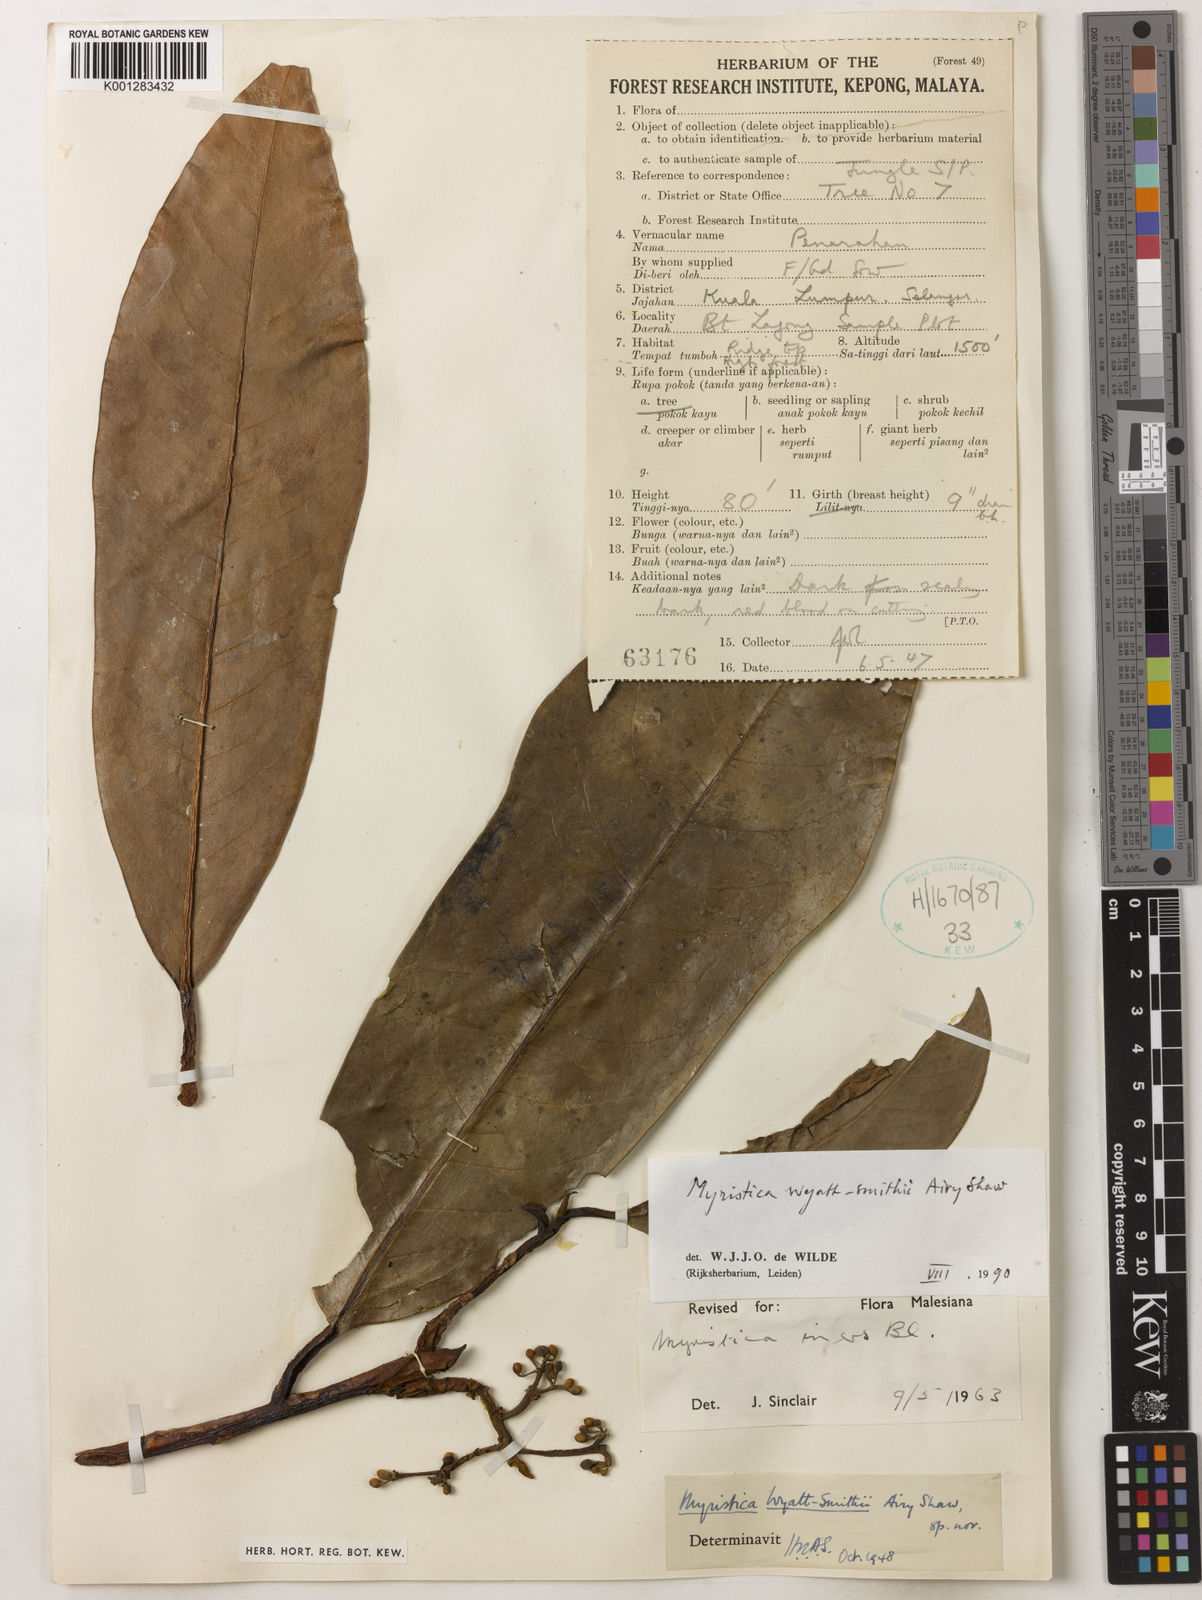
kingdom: Plantae
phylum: Tracheophyta
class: Magnoliopsida
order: Magnoliales
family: Myristicaceae
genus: Myristica
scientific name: Myristica wyatt-smithii
